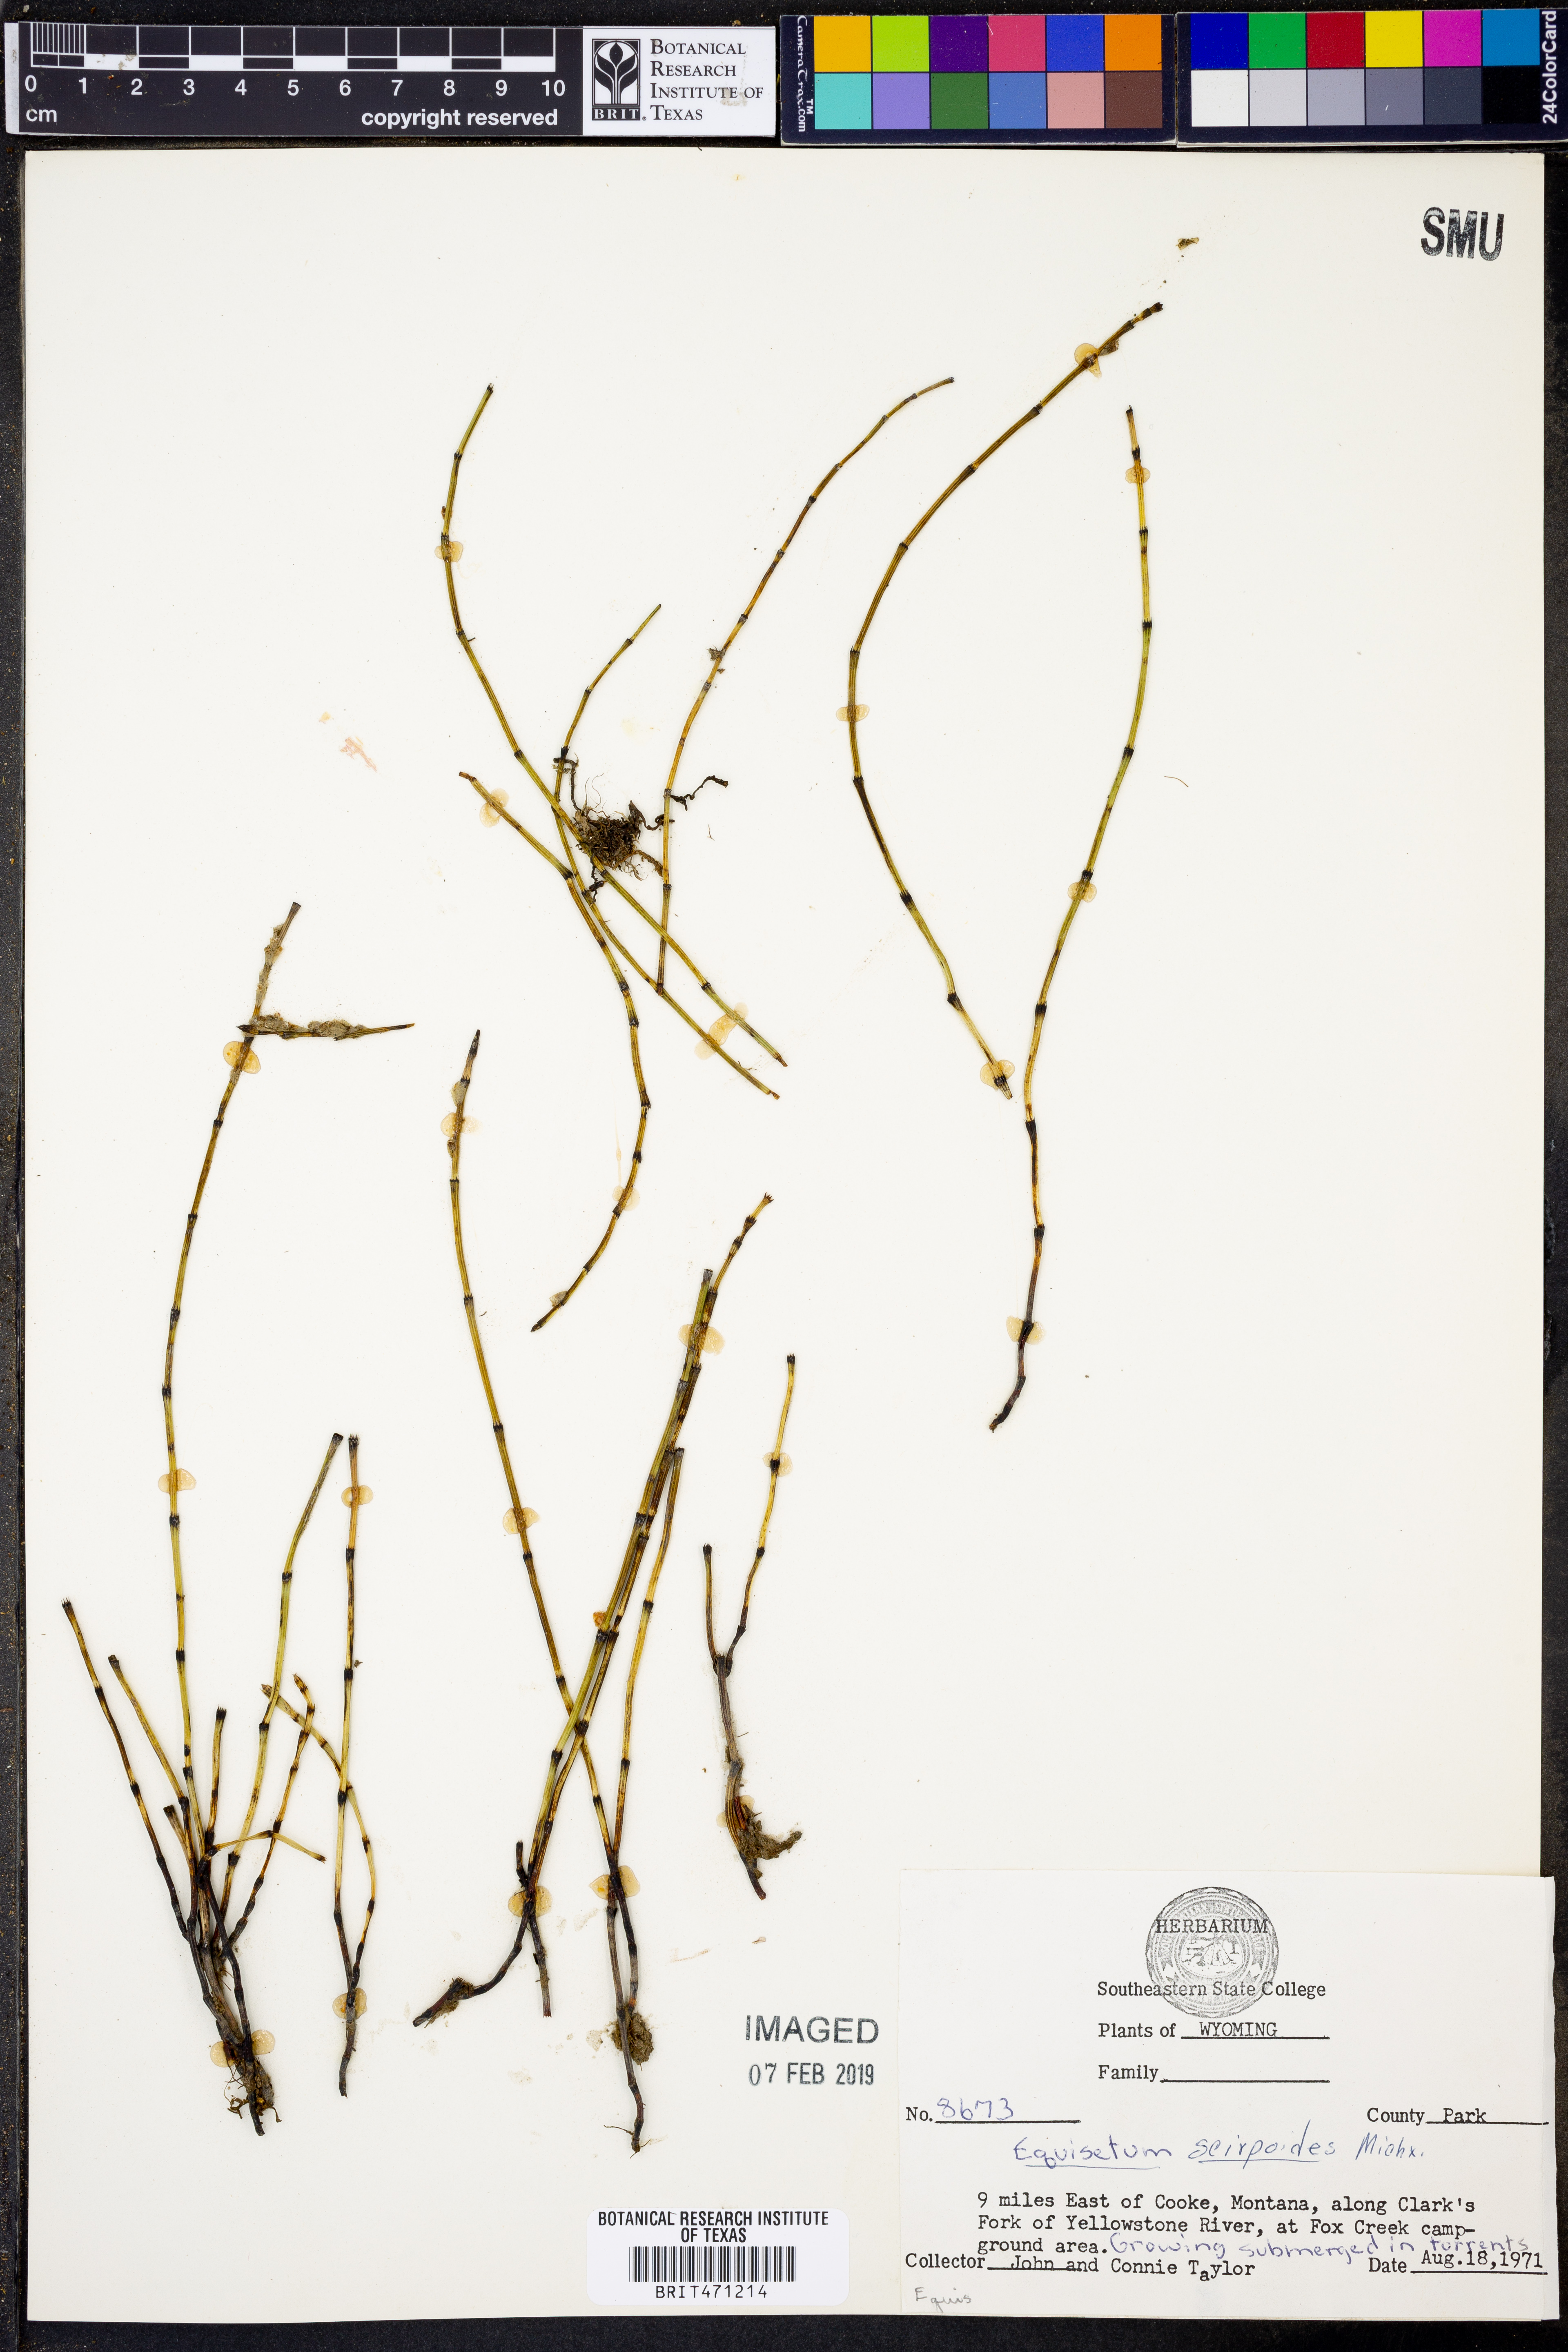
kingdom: Plantae
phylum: Tracheophyta
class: Polypodiopsida
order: Equisetales
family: Equisetaceae
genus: Equisetum
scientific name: Equisetum scirpoides
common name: Delicate horsetail
